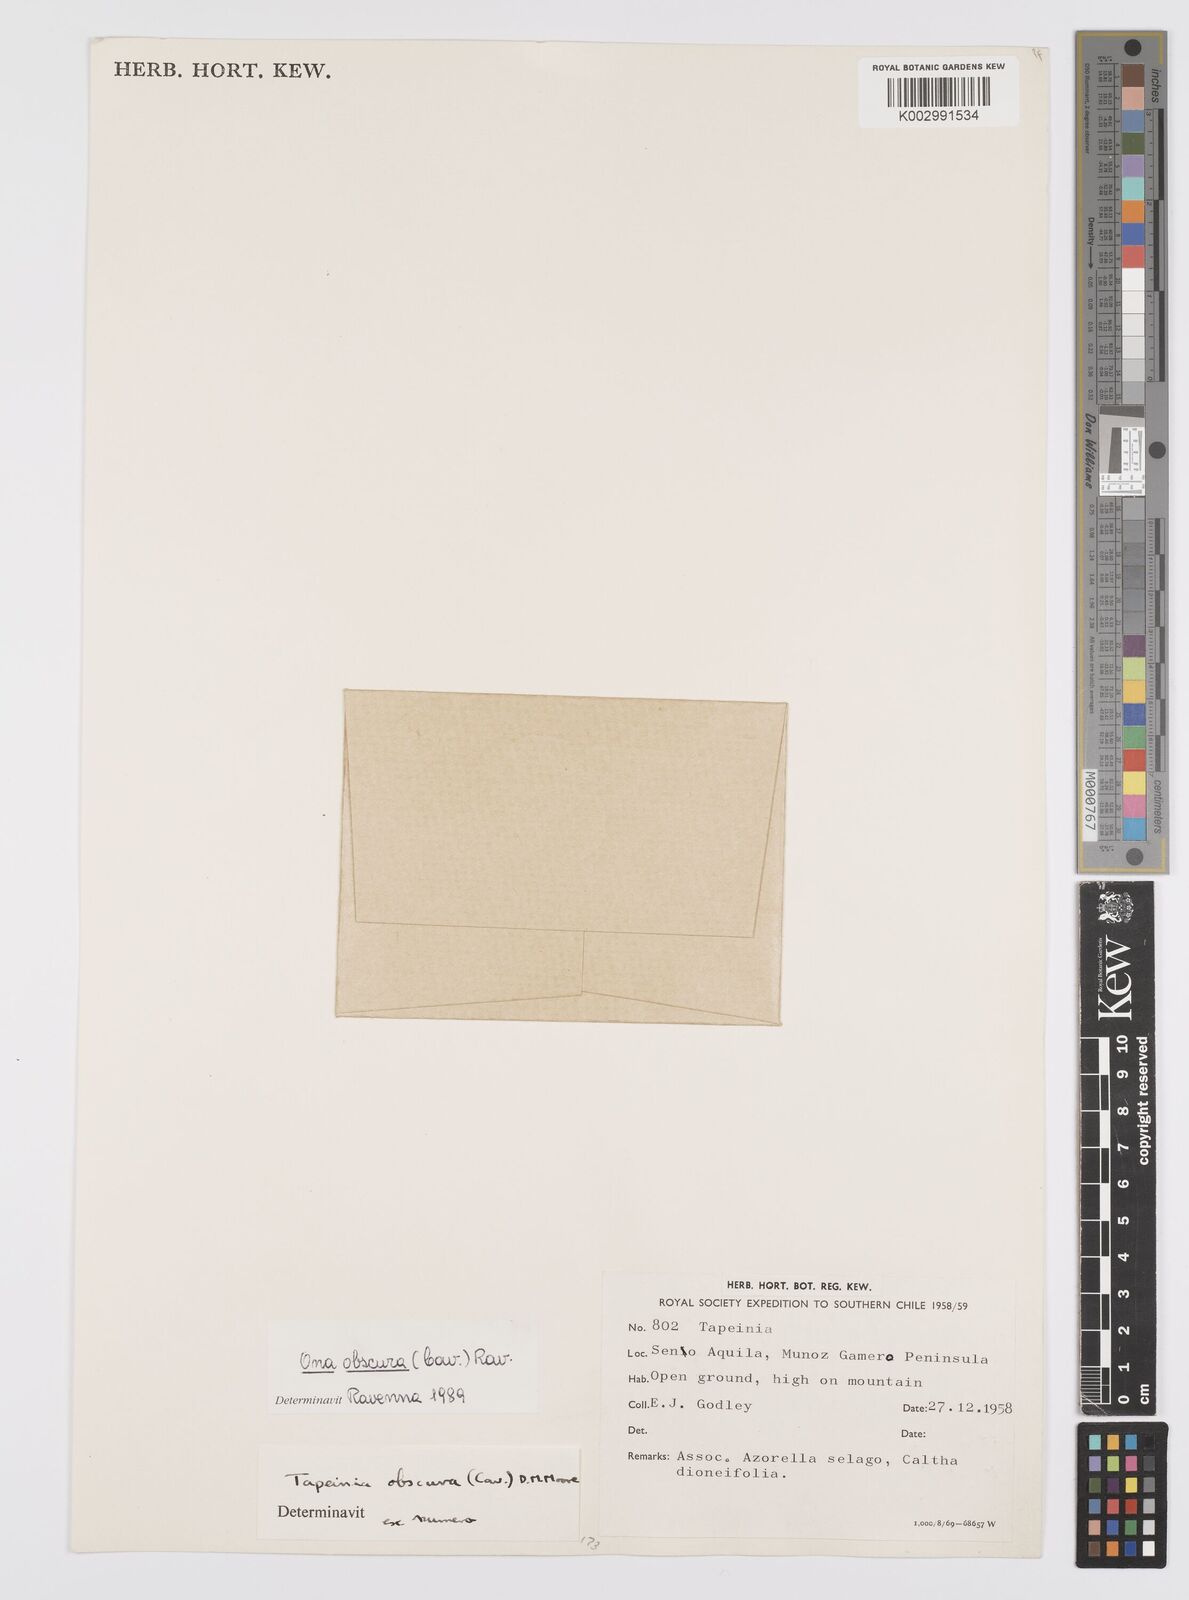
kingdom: Plantae
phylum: Tracheophyta
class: Liliopsida
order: Asparagales
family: Iridaceae
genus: Olsynium
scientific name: Olsynium obscurum
